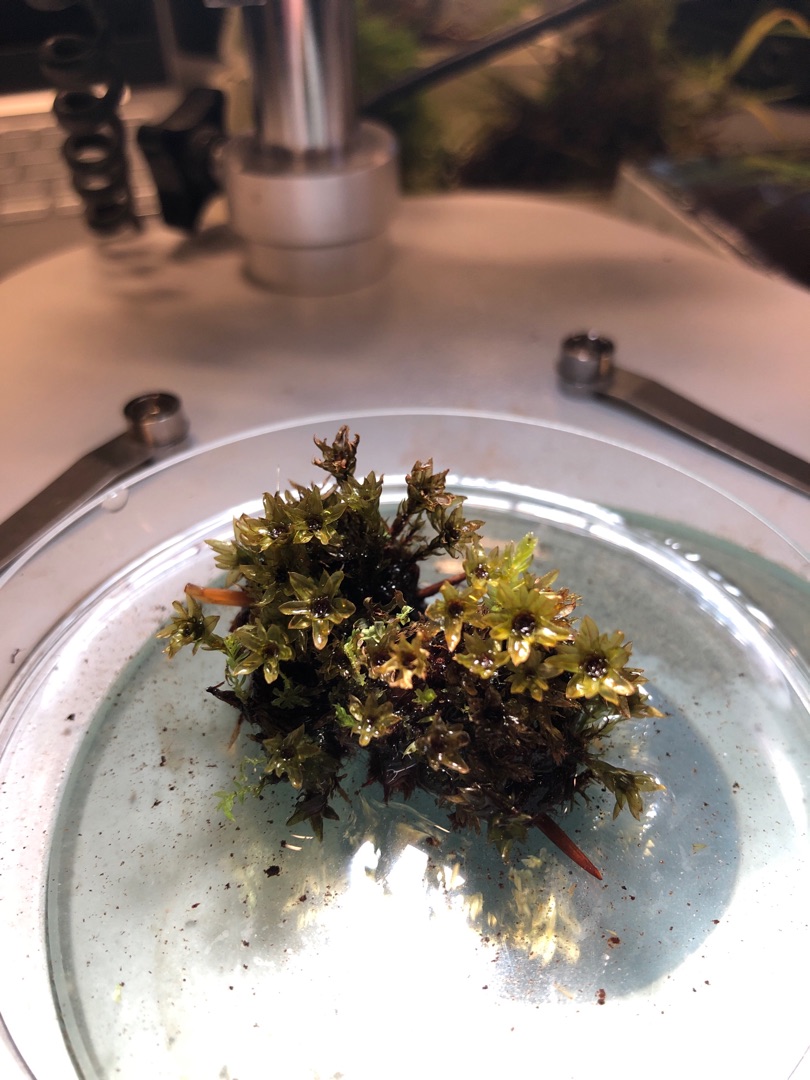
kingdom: Plantae
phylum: Bryophyta
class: Bryopsida
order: Bryales
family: Mniaceae
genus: Mnium
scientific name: Mnium hornum
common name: Brunfiltet stjernemos
